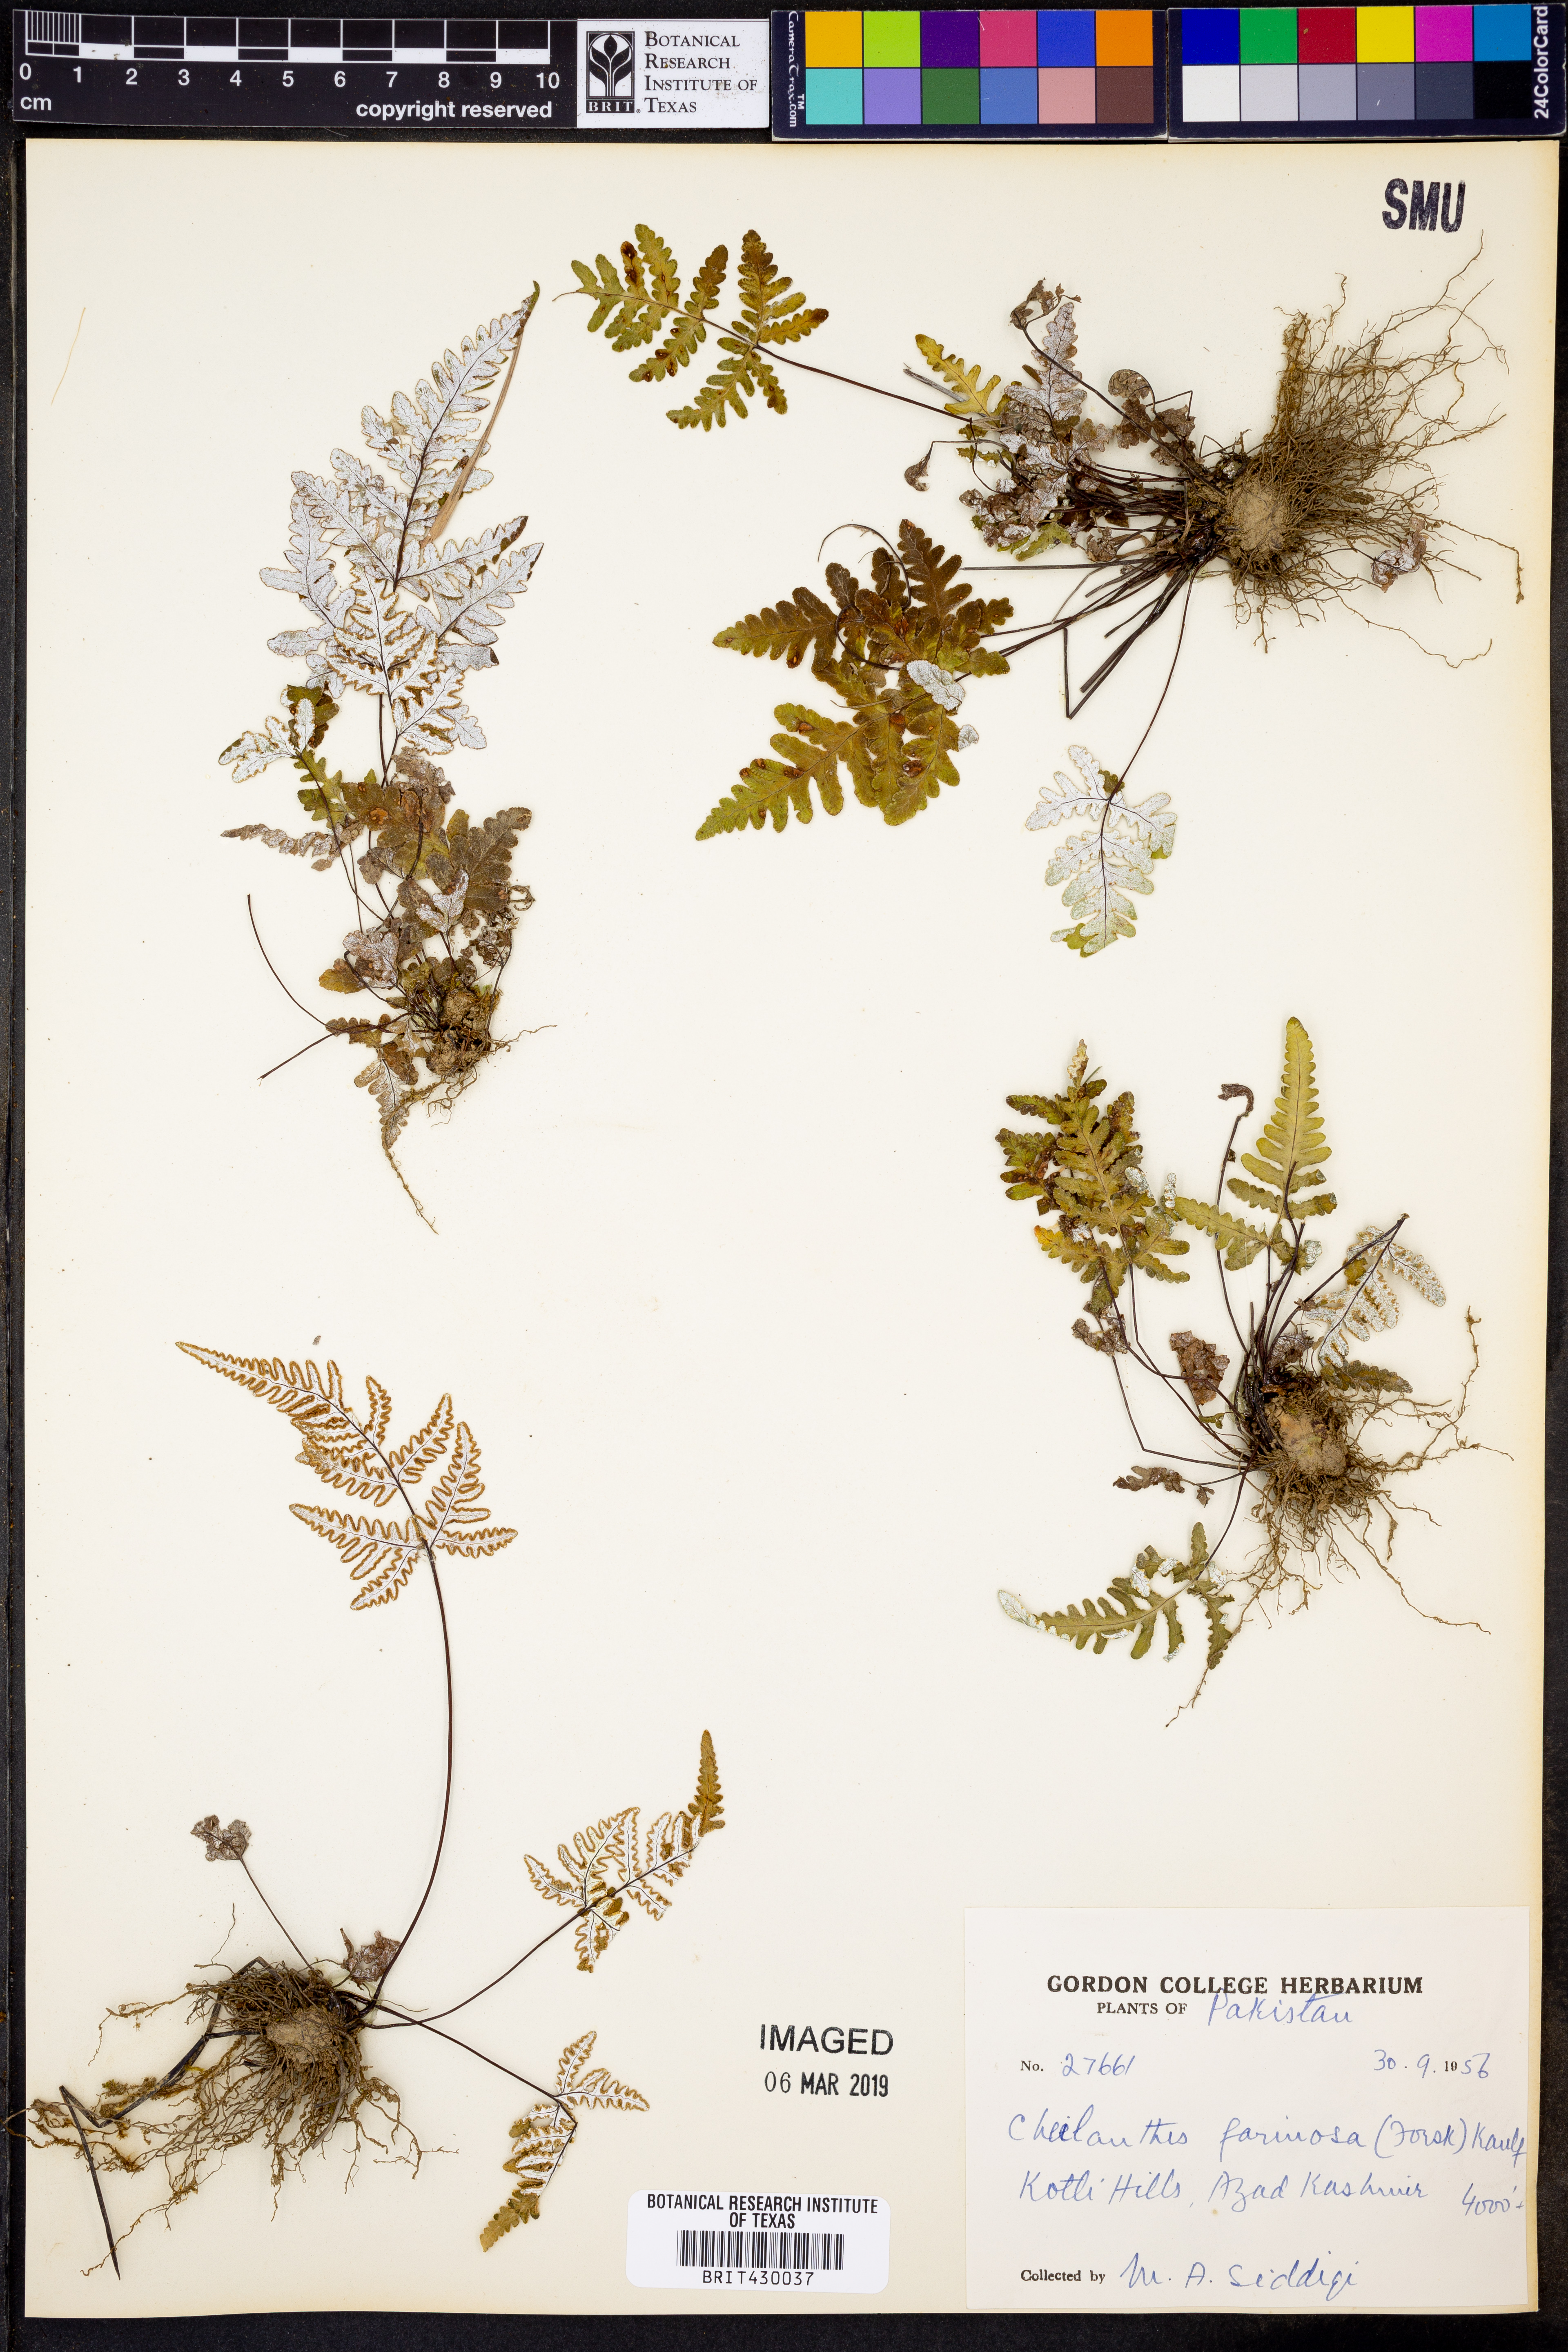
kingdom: Plantae
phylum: Tracheophyta
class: Polypodiopsida
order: Polypodiales
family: Pteridaceae
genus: Aleuritopteris
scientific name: Aleuritopteris farinosa
